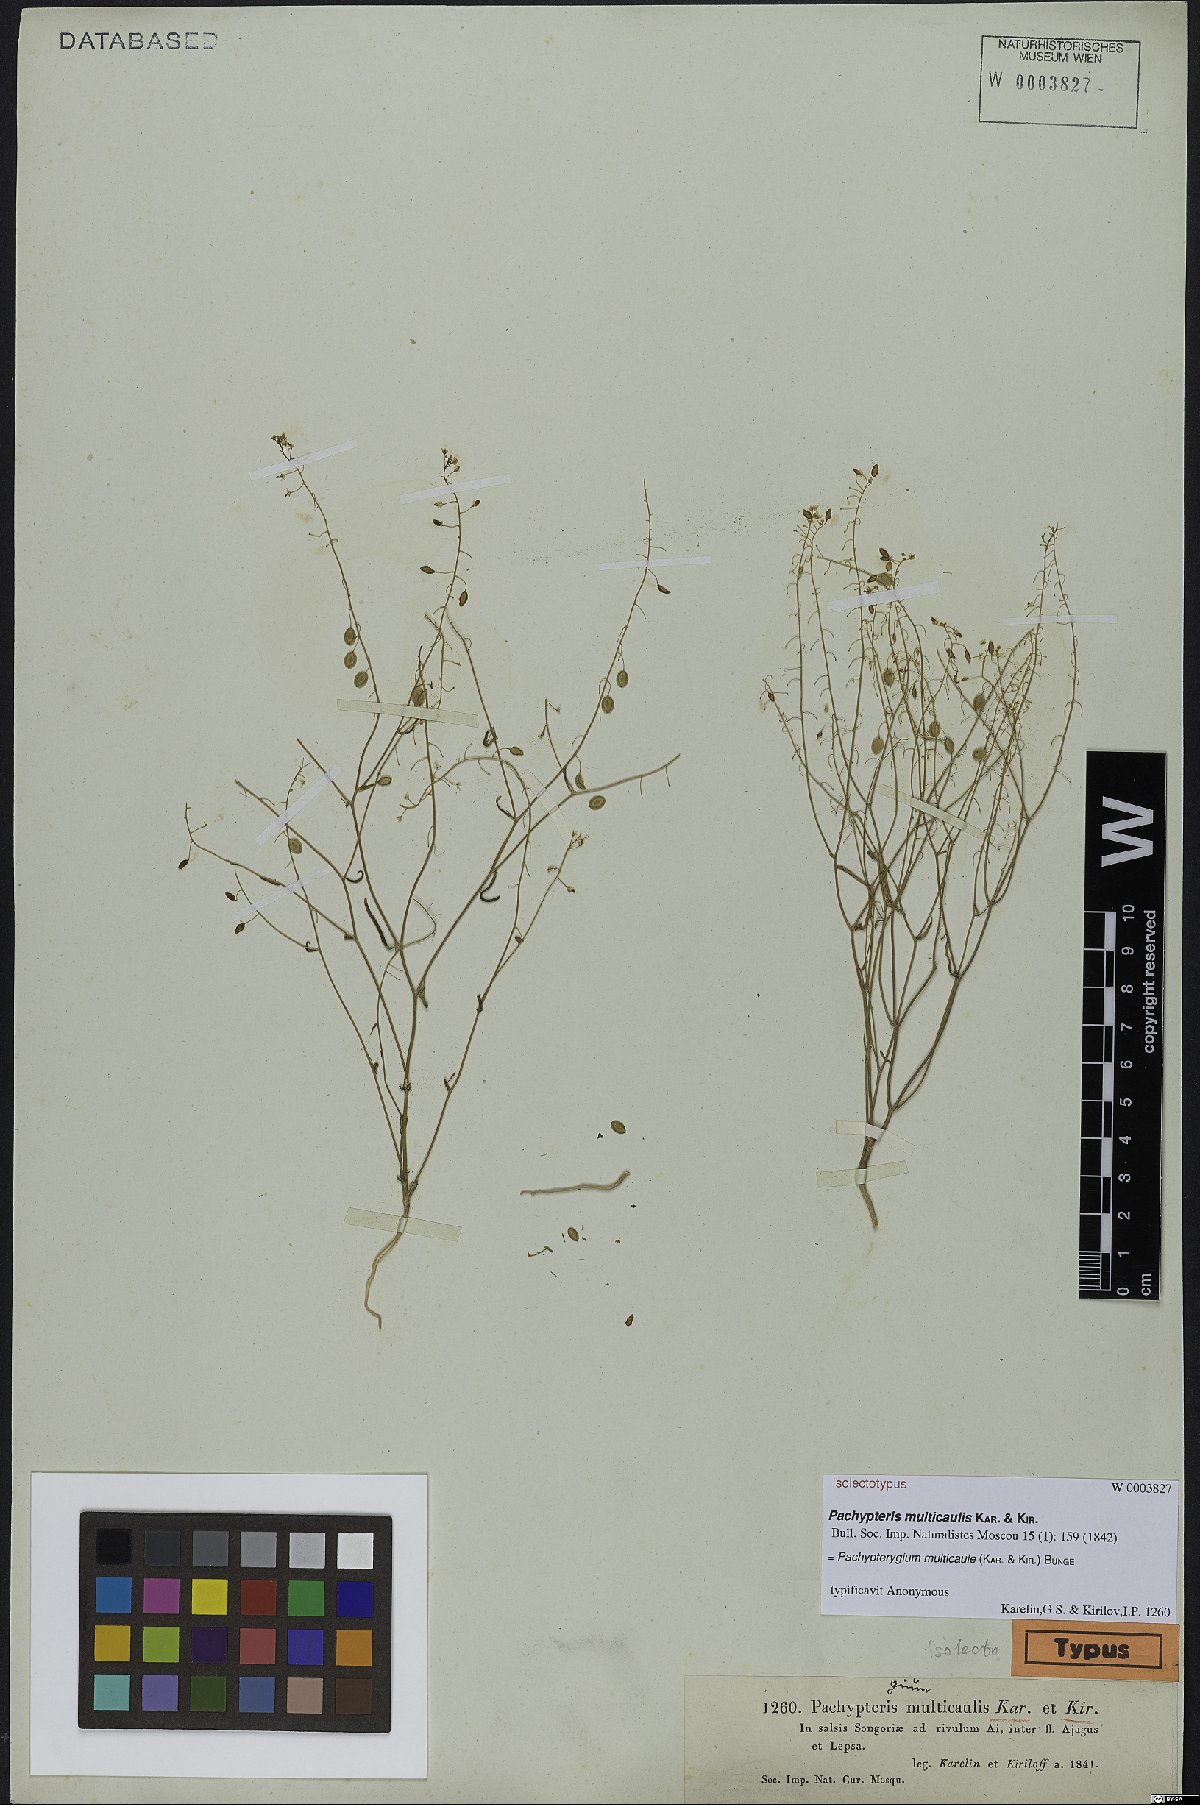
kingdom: Plantae
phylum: Tracheophyta
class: Magnoliopsida
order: Brassicales
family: Brassicaceae
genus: Isatis
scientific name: Isatis multicaulis
